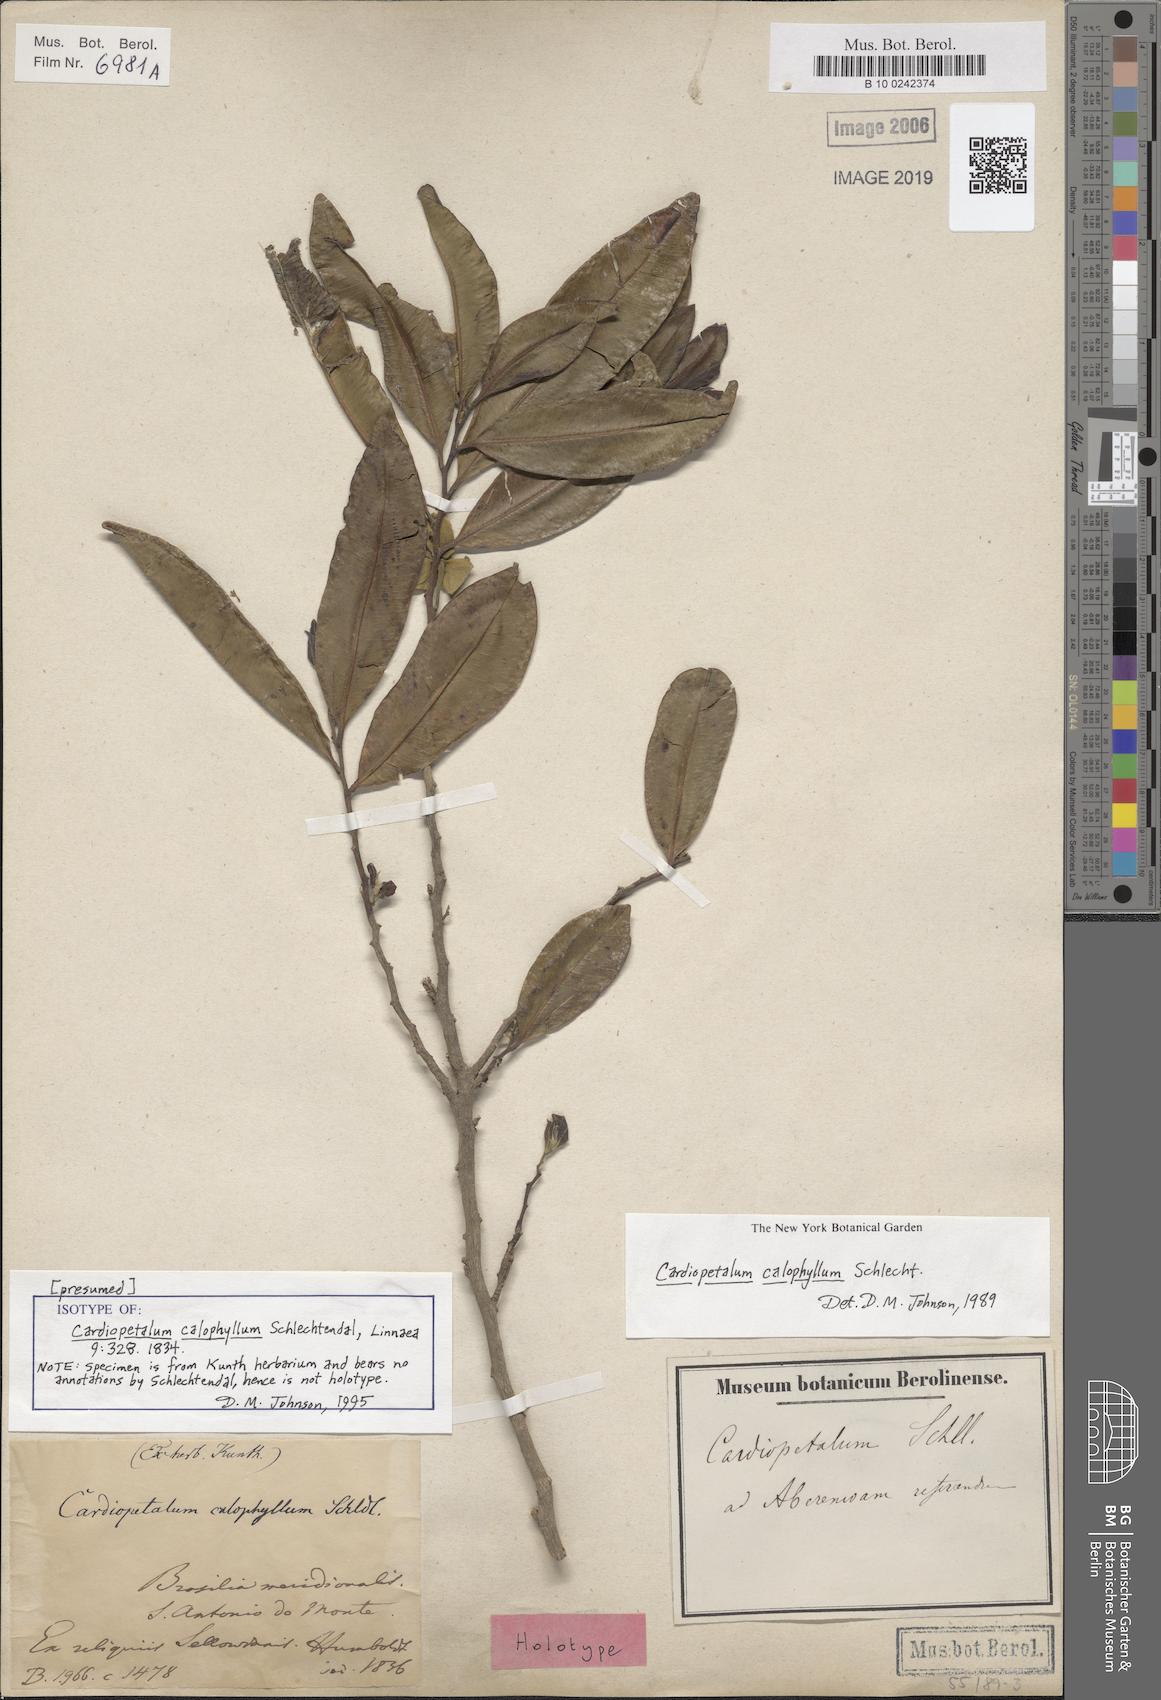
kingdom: Plantae
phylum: Tracheophyta
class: Magnoliopsida
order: Magnoliales
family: Annonaceae
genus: Cardiopetalum
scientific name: Cardiopetalum calophyllum
